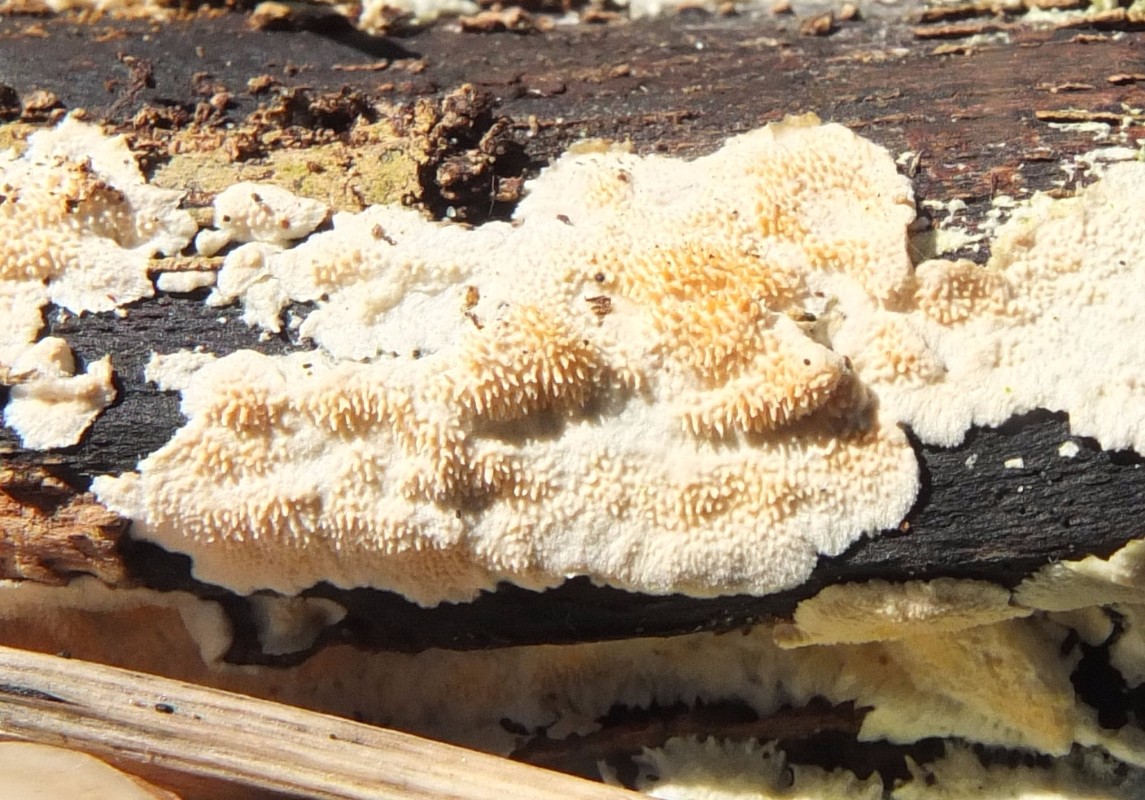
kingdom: Fungi
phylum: Basidiomycota
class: Agaricomycetes
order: Polyporales
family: Steccherinaceae
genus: Steccherinum
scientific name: Steccherinum ochraceum
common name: almindelig skønpig
